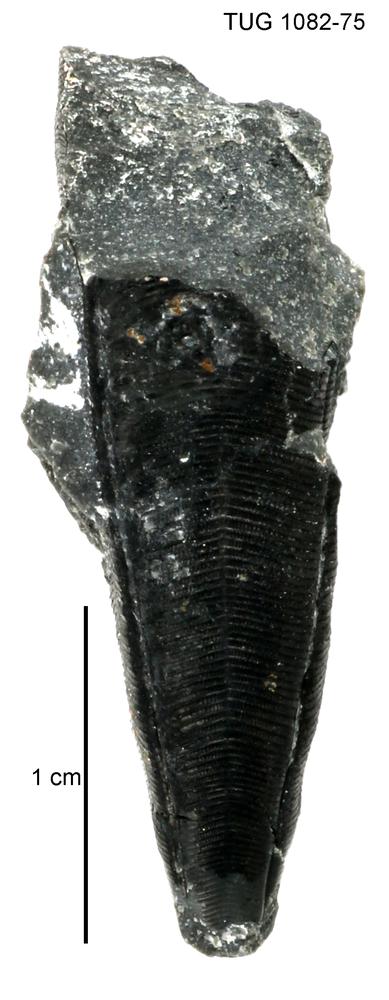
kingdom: Animalia
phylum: Cnidaria
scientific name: Cnidaria
